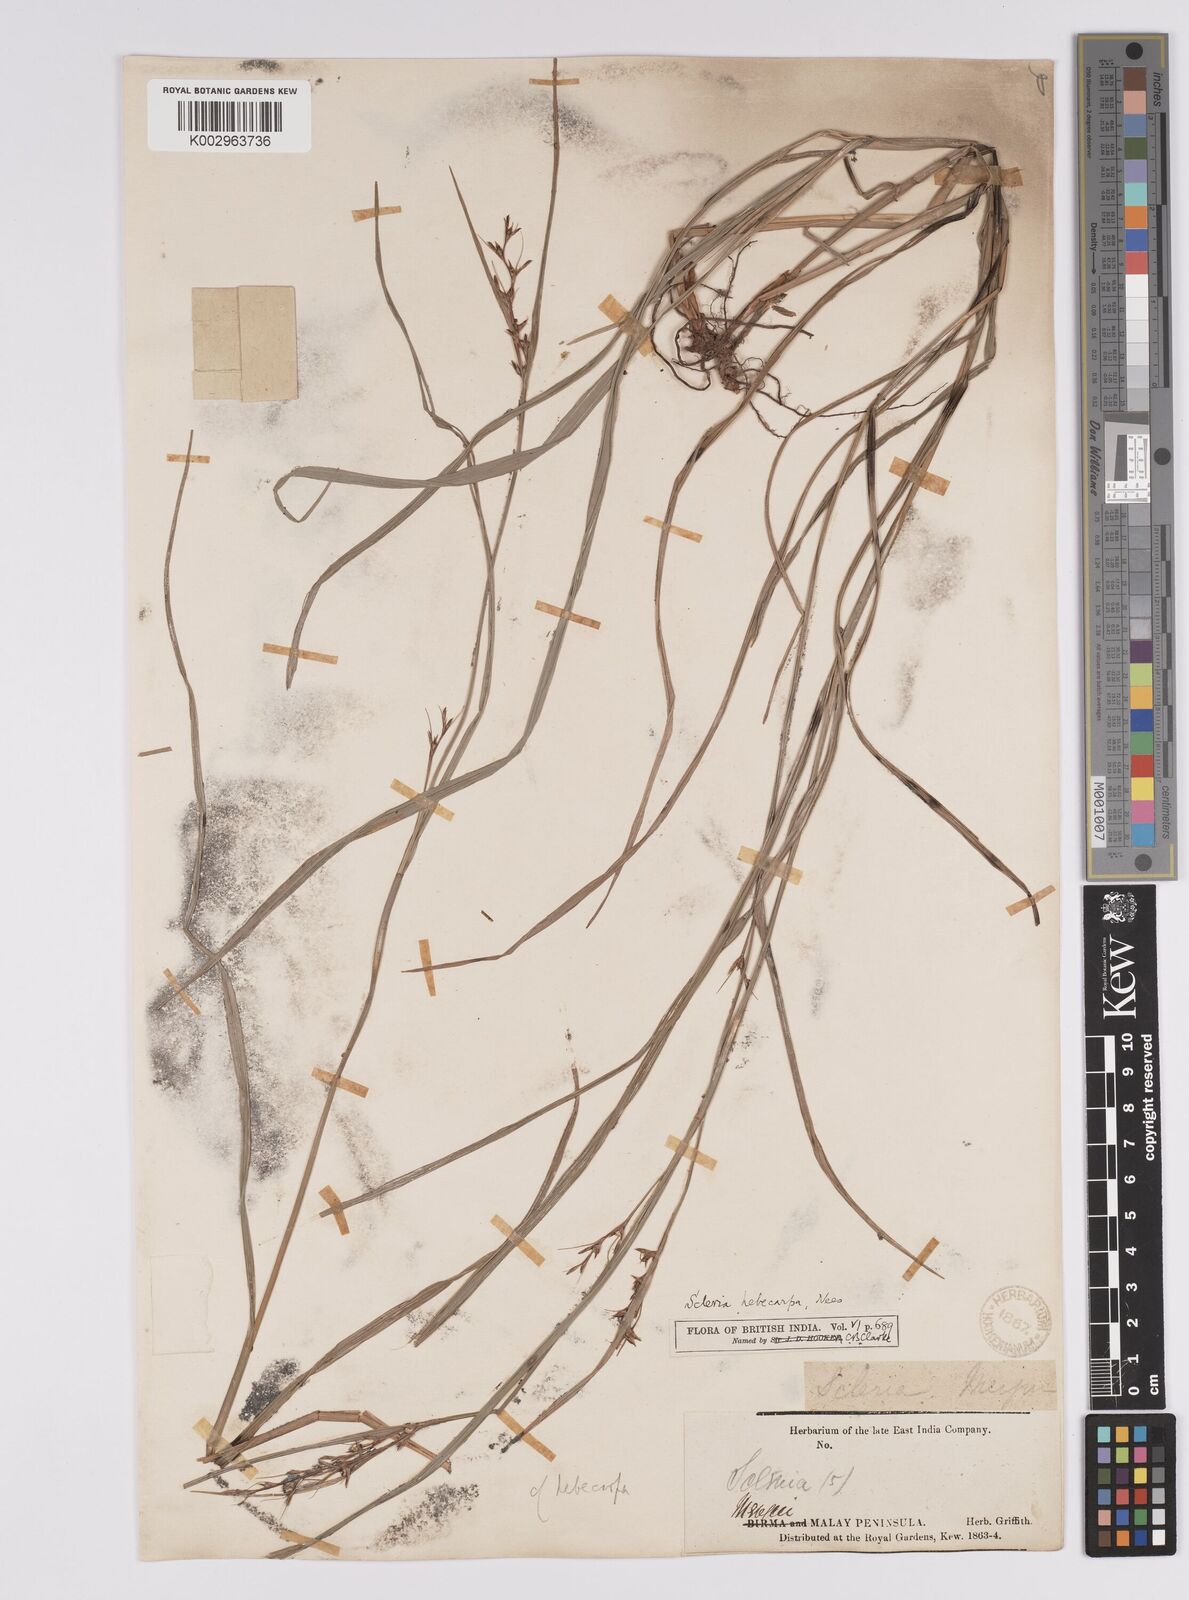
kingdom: Plantae
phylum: Tracheophyta
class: Liliopsida
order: Poales
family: Cyperaceae
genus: Scleria
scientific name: Scleria levis
